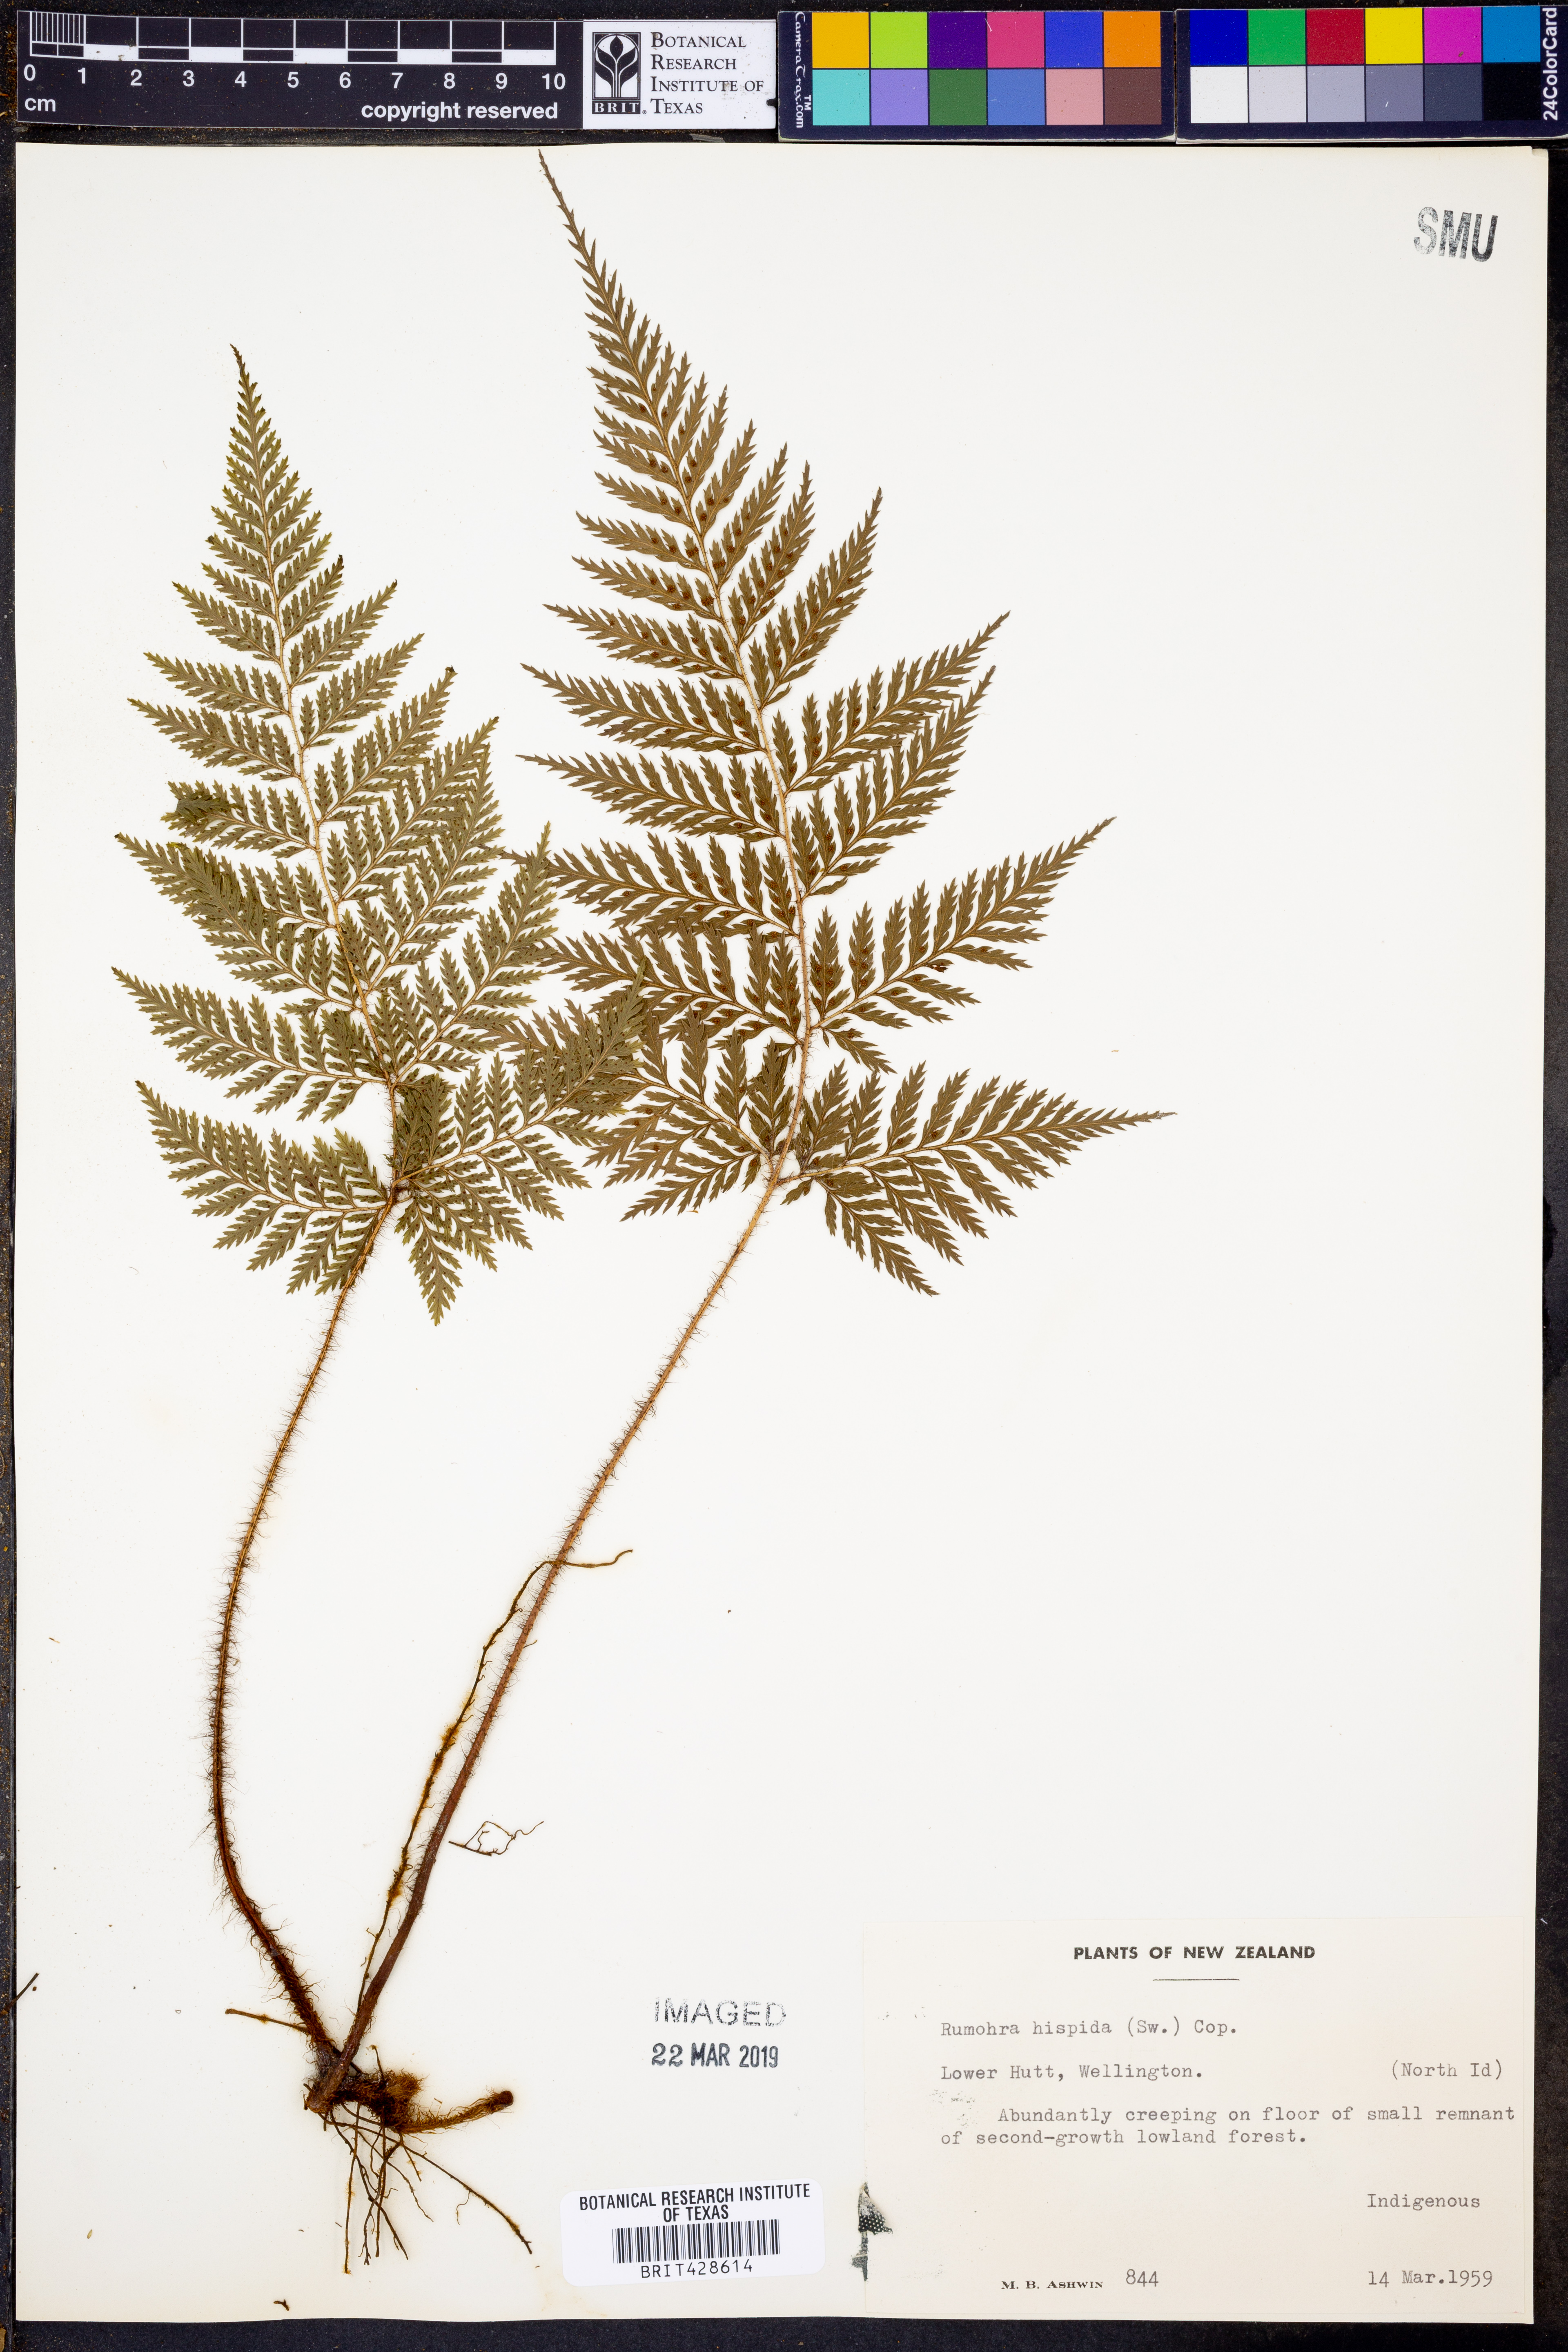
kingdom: Plantae
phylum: Tracheophyta
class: Polypodiopsida
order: Polypodiales
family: Dryopteridaceae
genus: Lastreopsis
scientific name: Lastreopsis hispida
